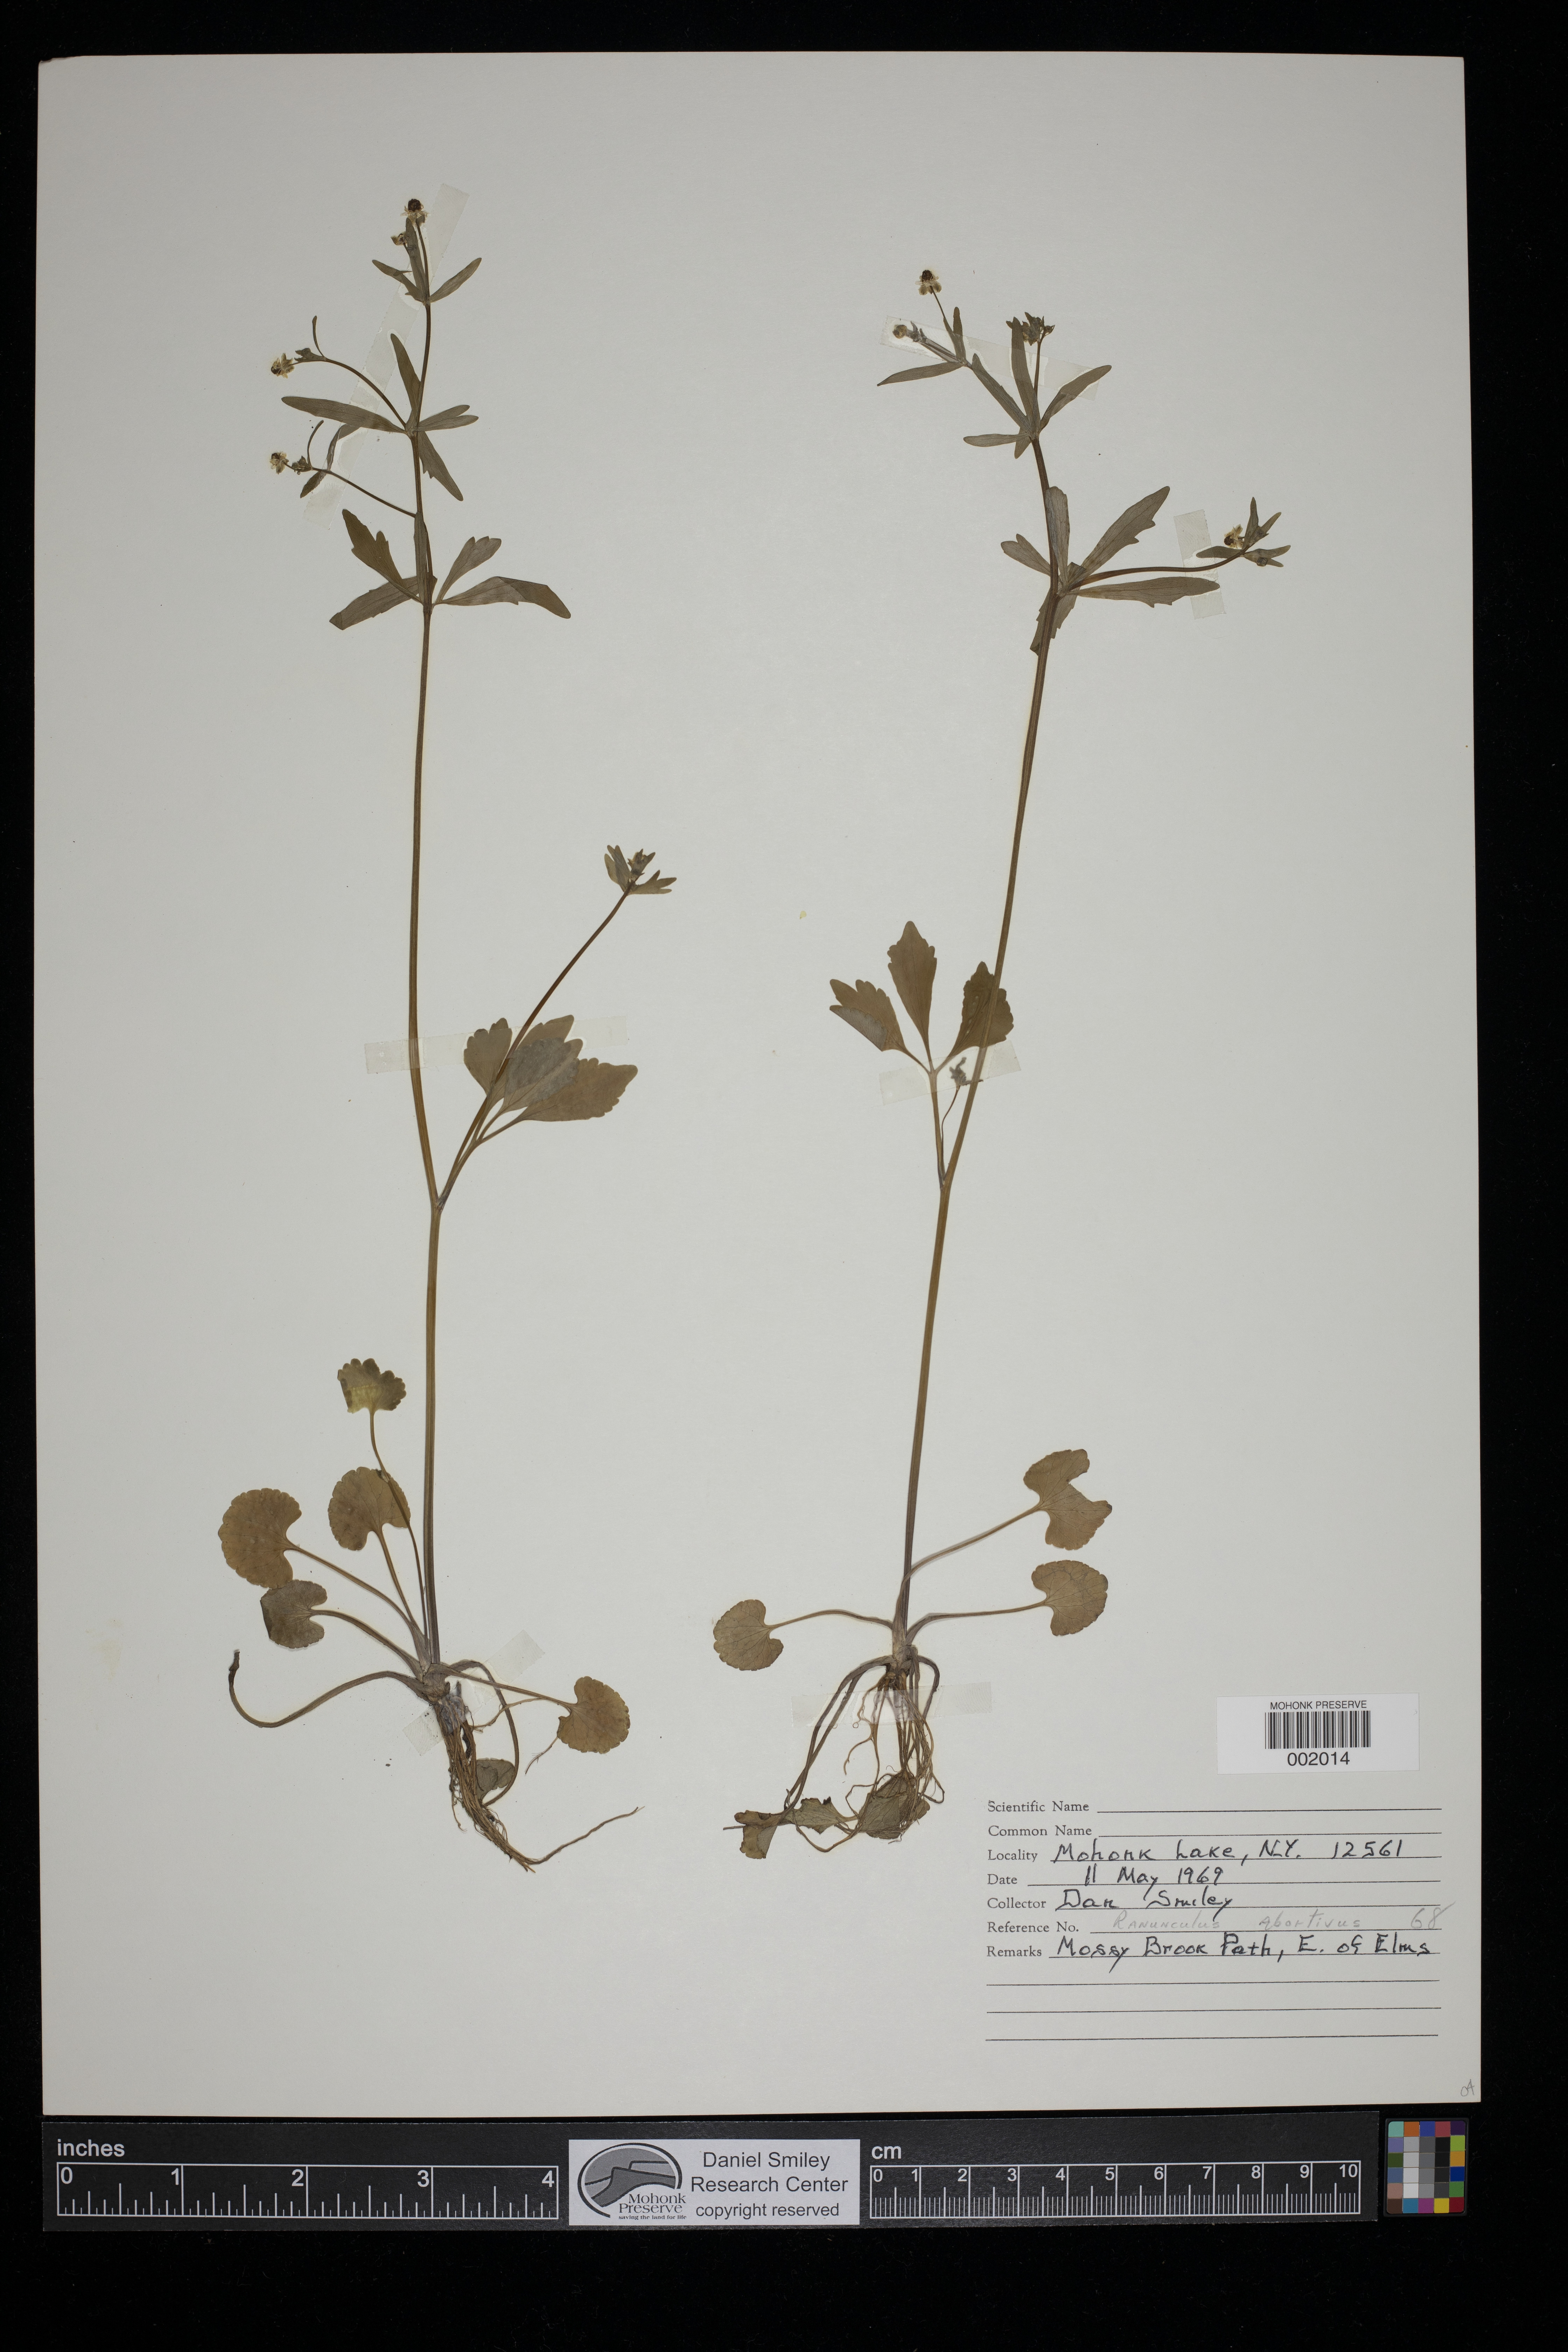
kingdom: Plantae
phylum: Tracheophyta
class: Magnoliopsida
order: Ranunculales
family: Ranunculaceae
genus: Ranunculus
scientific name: Ranunculus
